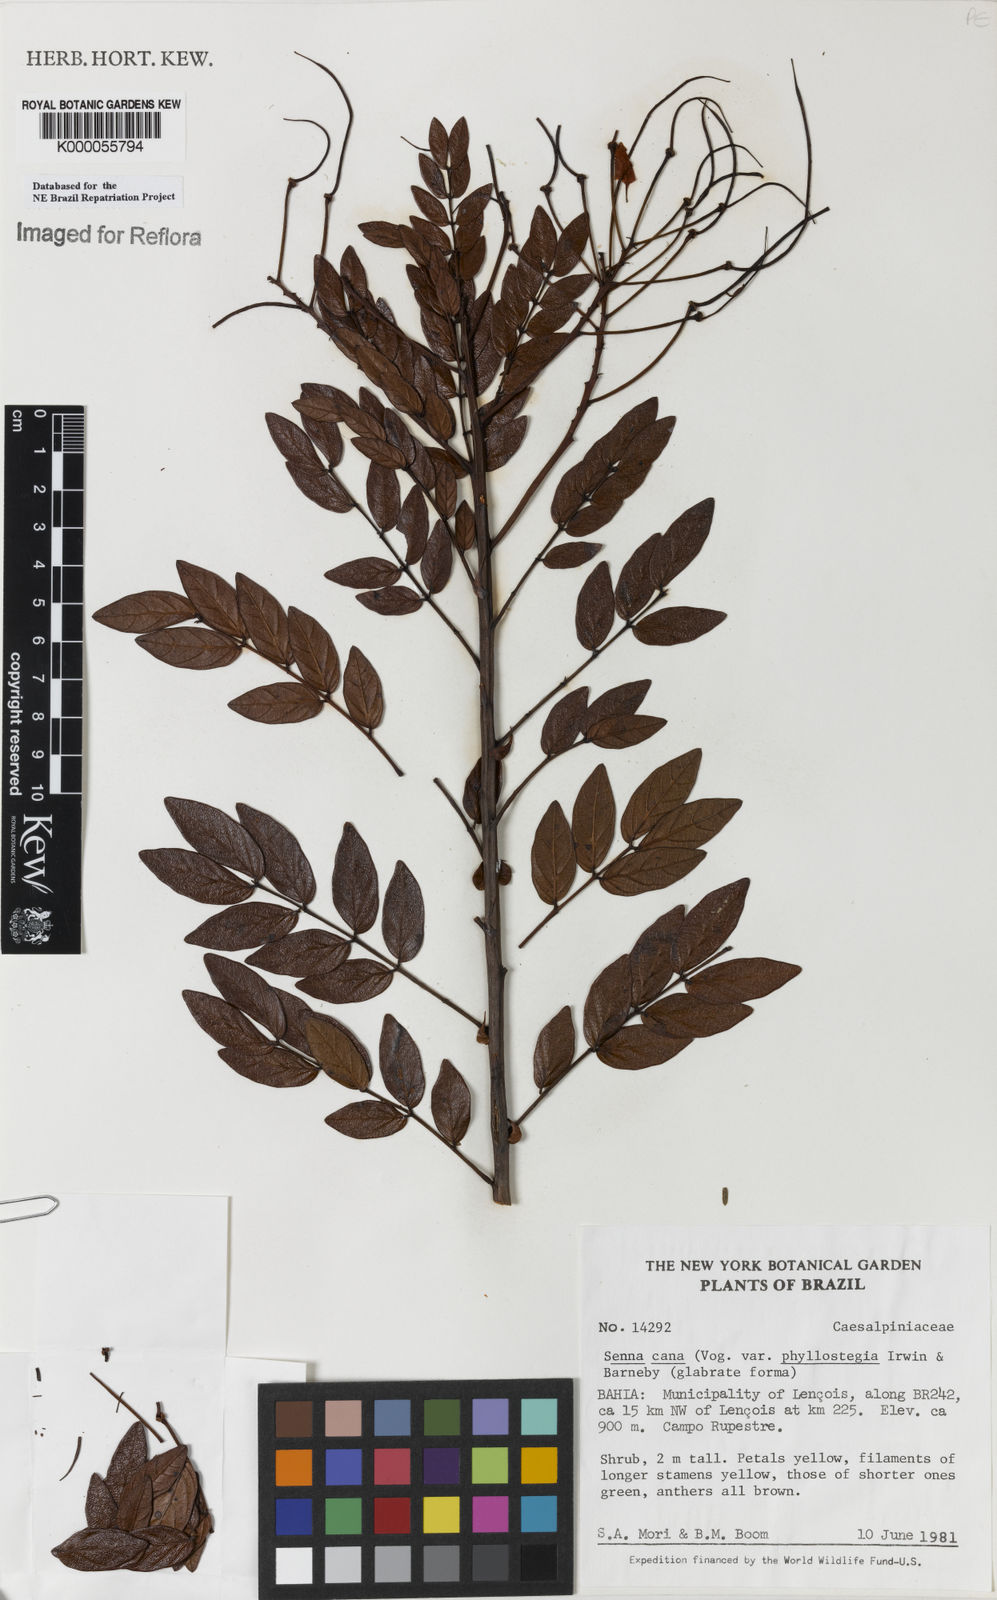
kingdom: Plantae
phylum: Tracheophyta
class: Magnoliopsida
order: Fabales
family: Fabaceae
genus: Senna
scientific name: Senna cana
